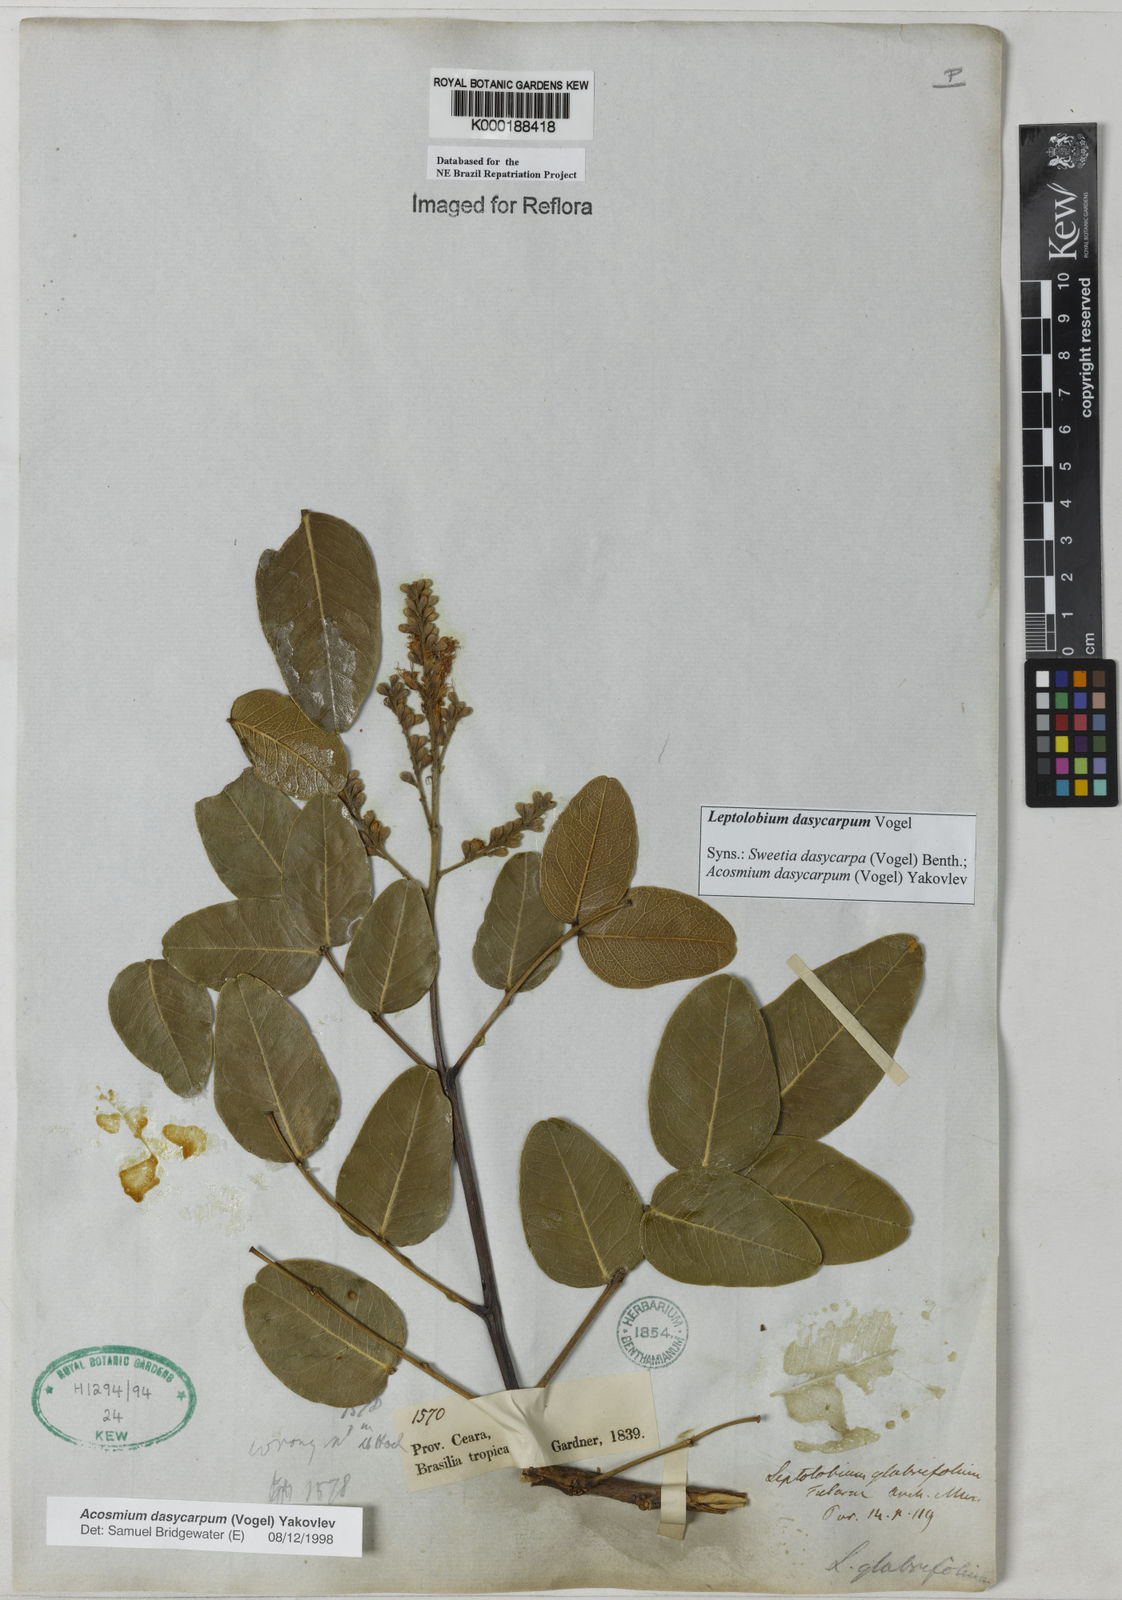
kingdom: Plantae
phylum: Tracheophyta
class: Magnoliopsida
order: Fabales
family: Fabaceae
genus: Leptolobium
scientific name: Leptolobium dasycarpum
